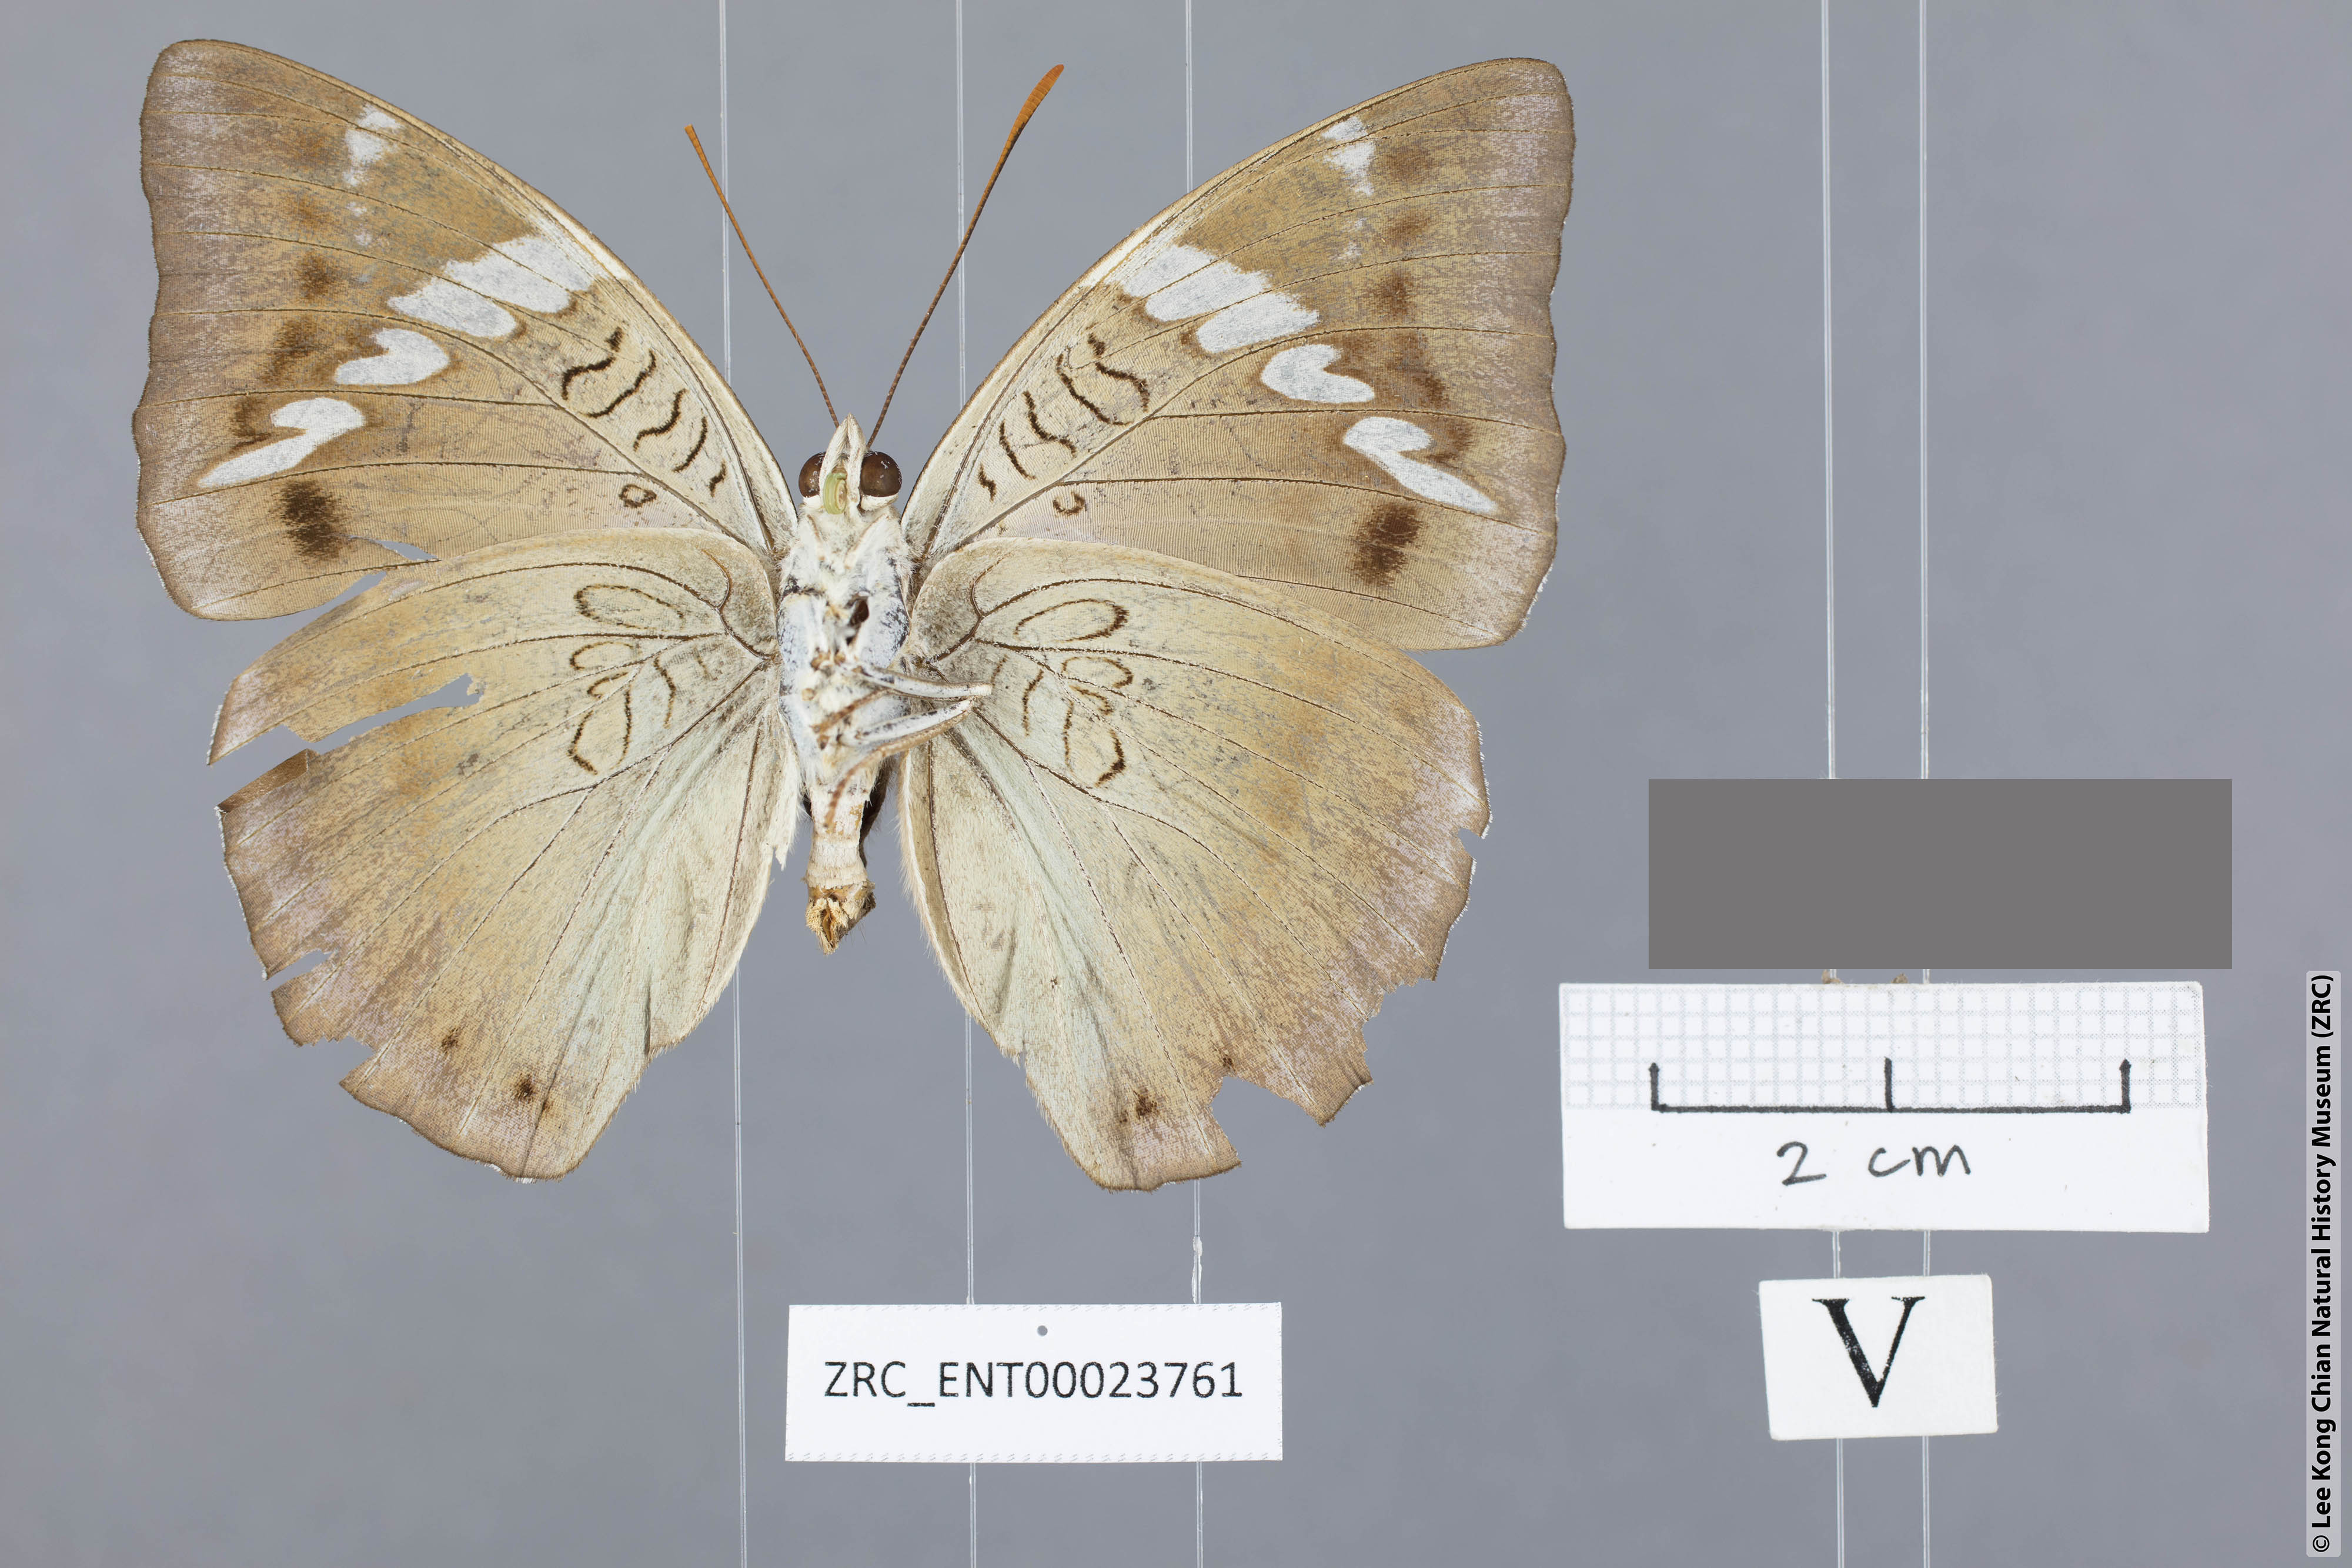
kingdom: Animalia
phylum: Arthropoda
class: Insecta
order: Lepidoptera
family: Nymphalidae
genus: Euthalia
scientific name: Euthalia phemius
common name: White-edged blue baron
